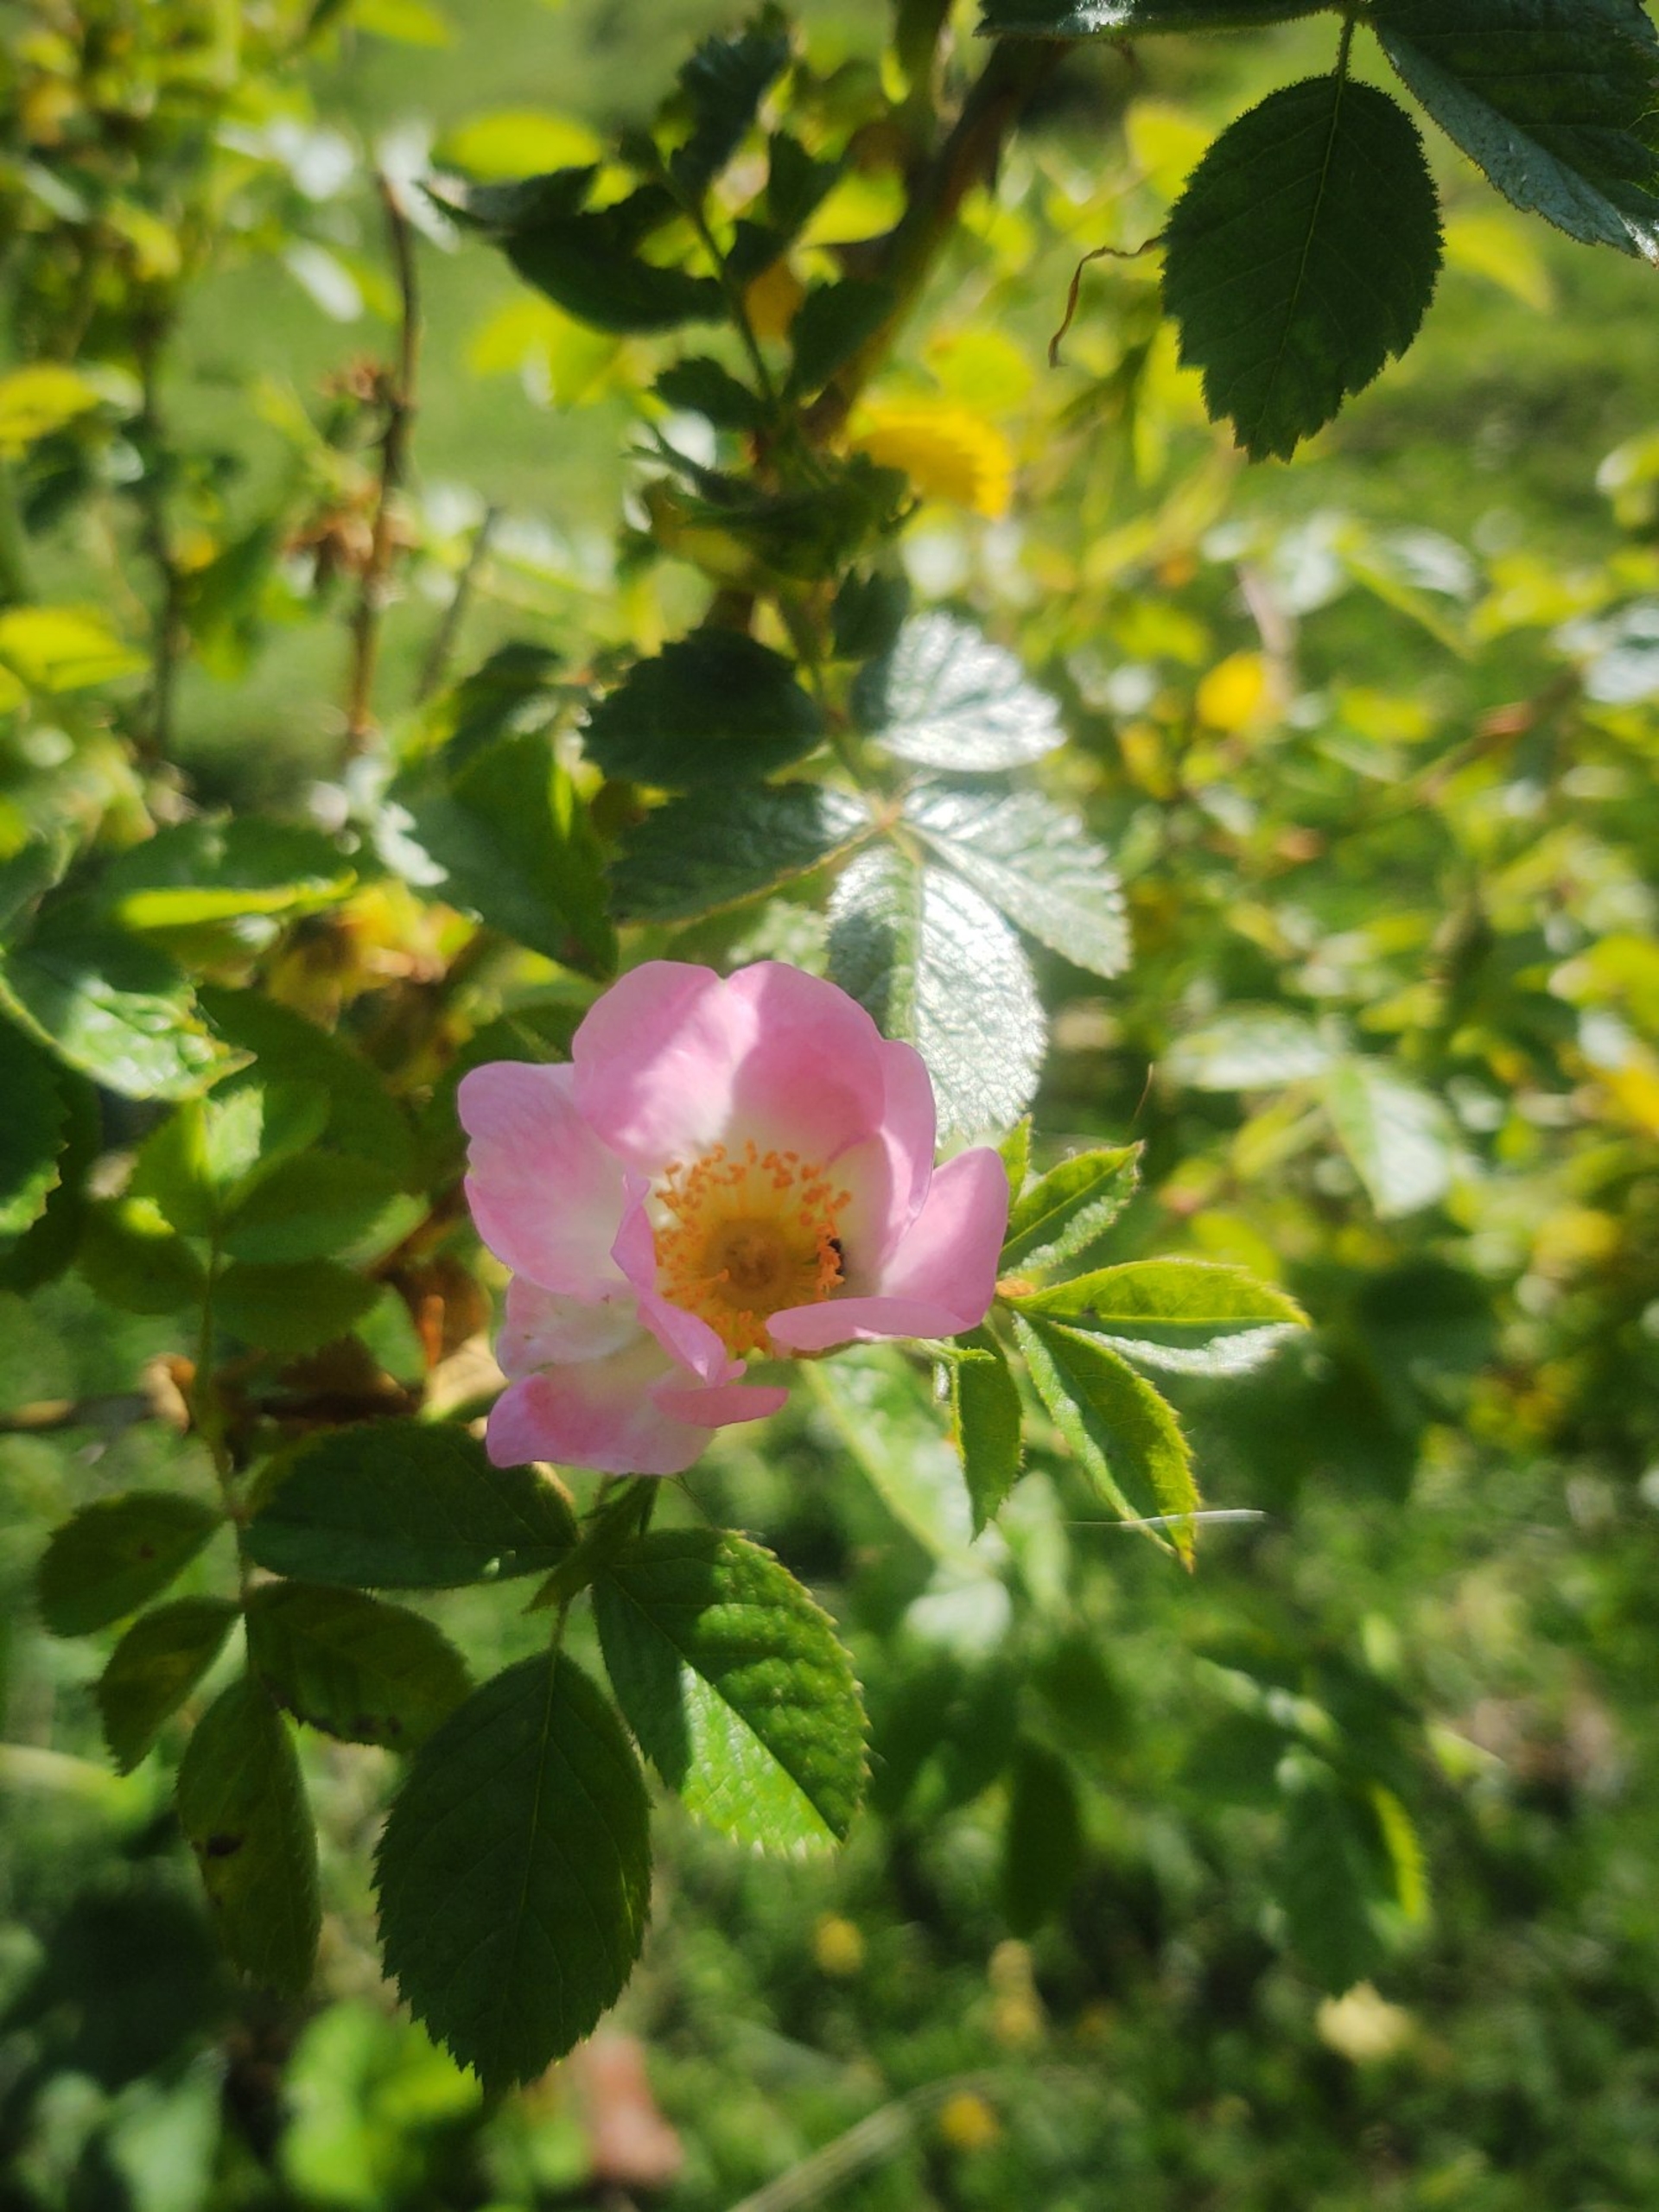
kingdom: Plantae
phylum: Tracheophyta
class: Magnoliopsida
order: Rosales
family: Rosaceae
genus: Rosa
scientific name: Rosa rubiginosa
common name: Æble-rose
